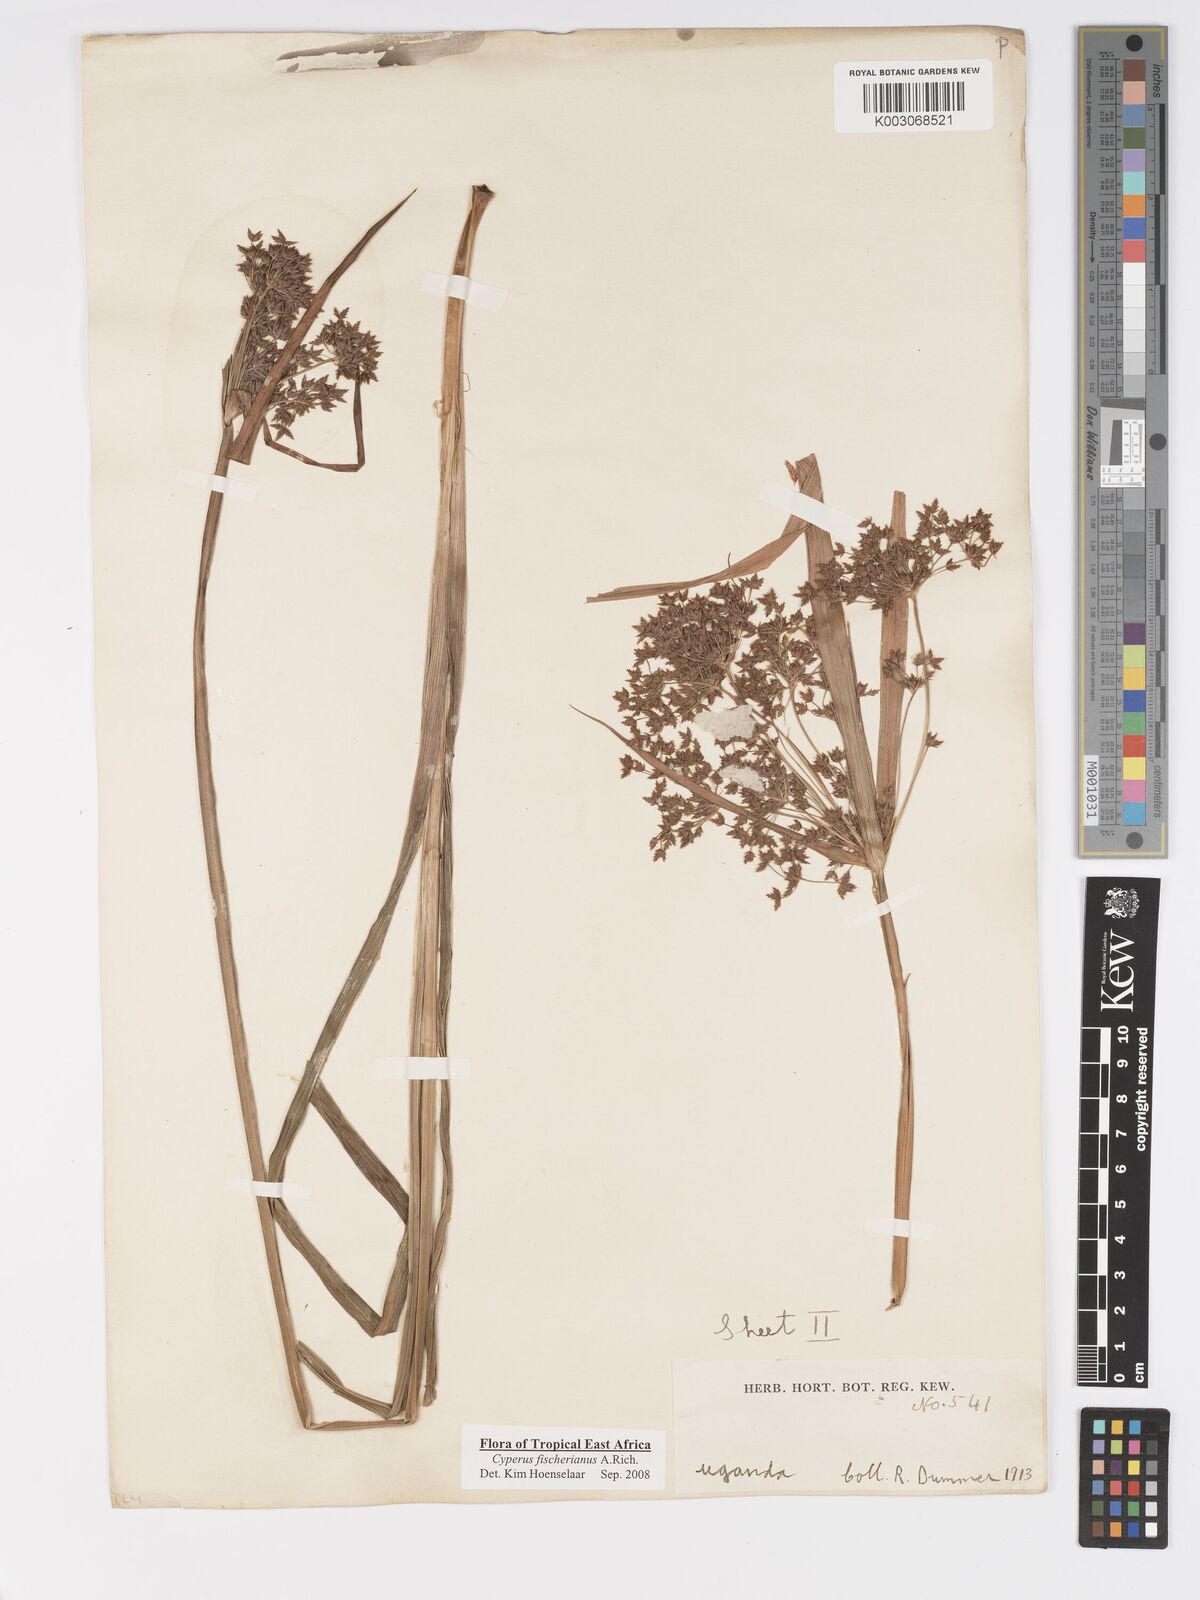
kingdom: Plantae
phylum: Tracheophyta
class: Liliopsida
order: Poales
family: Cyperaceae
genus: Cyperus
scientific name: Cyperus fischerianus
